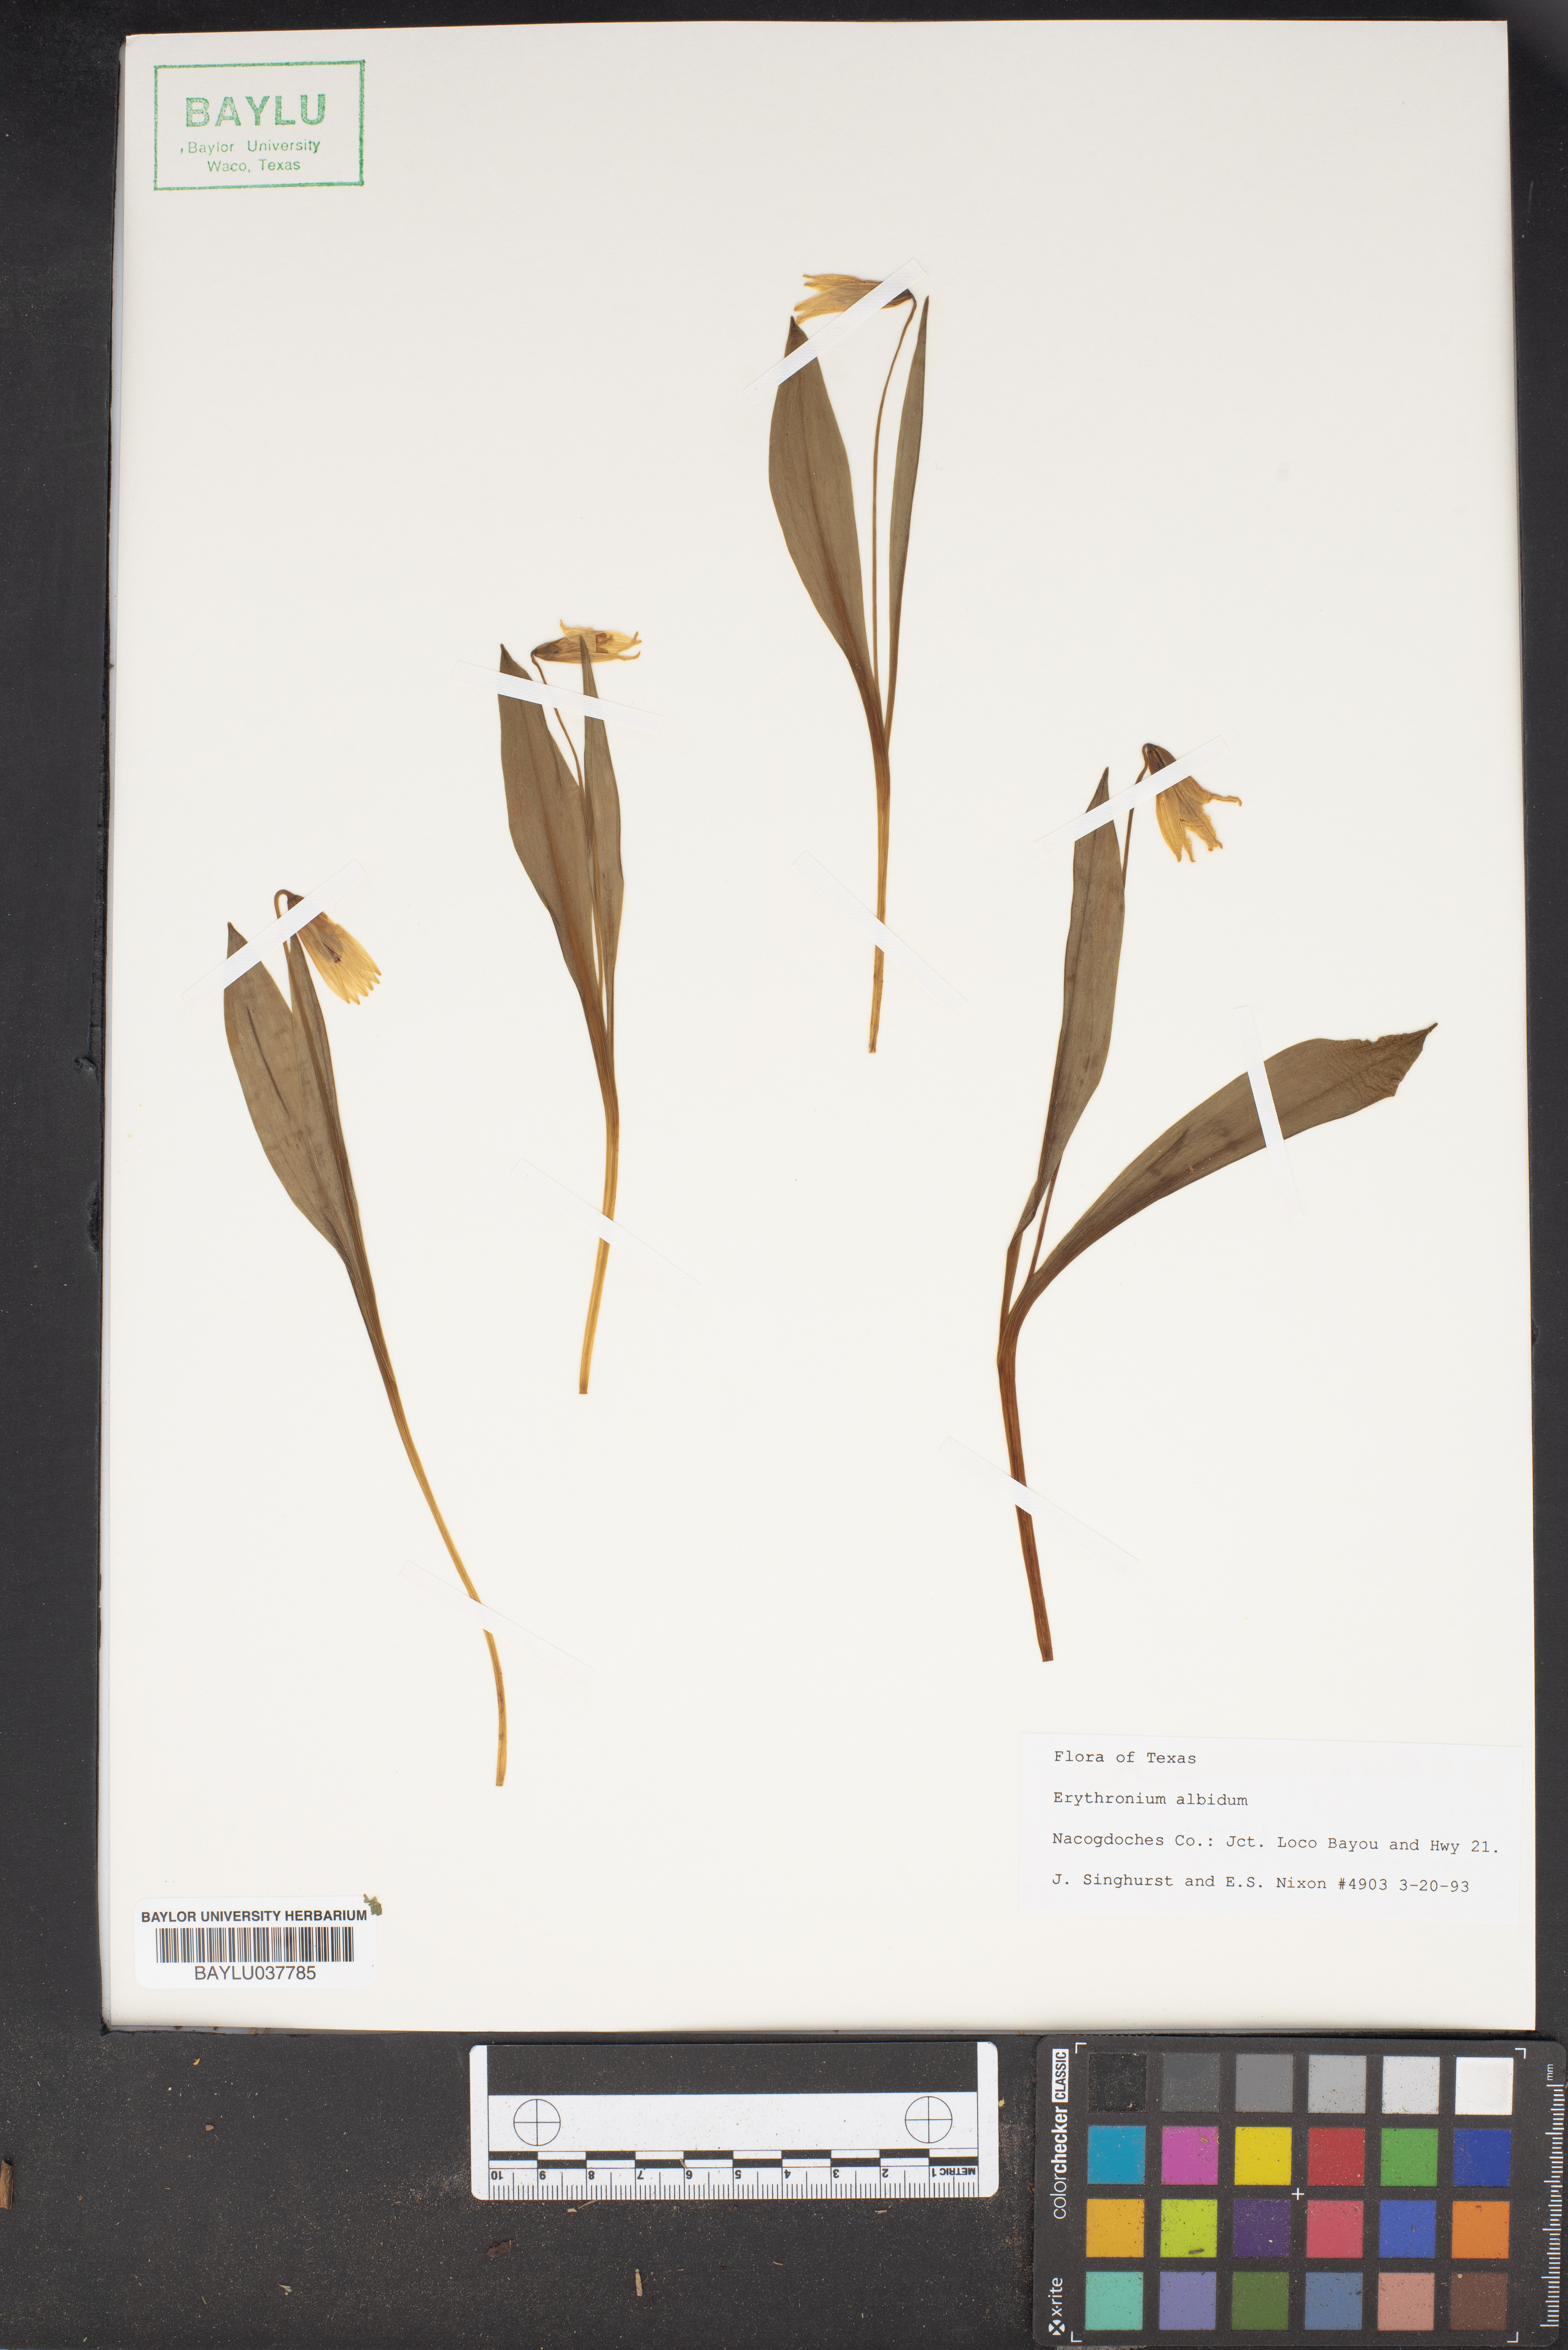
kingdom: Plantae
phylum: Tracheophyta
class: Liliopsida
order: Liliales
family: Liliaceae
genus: Erythronium
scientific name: Erythronium albidum
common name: White trout-lily
